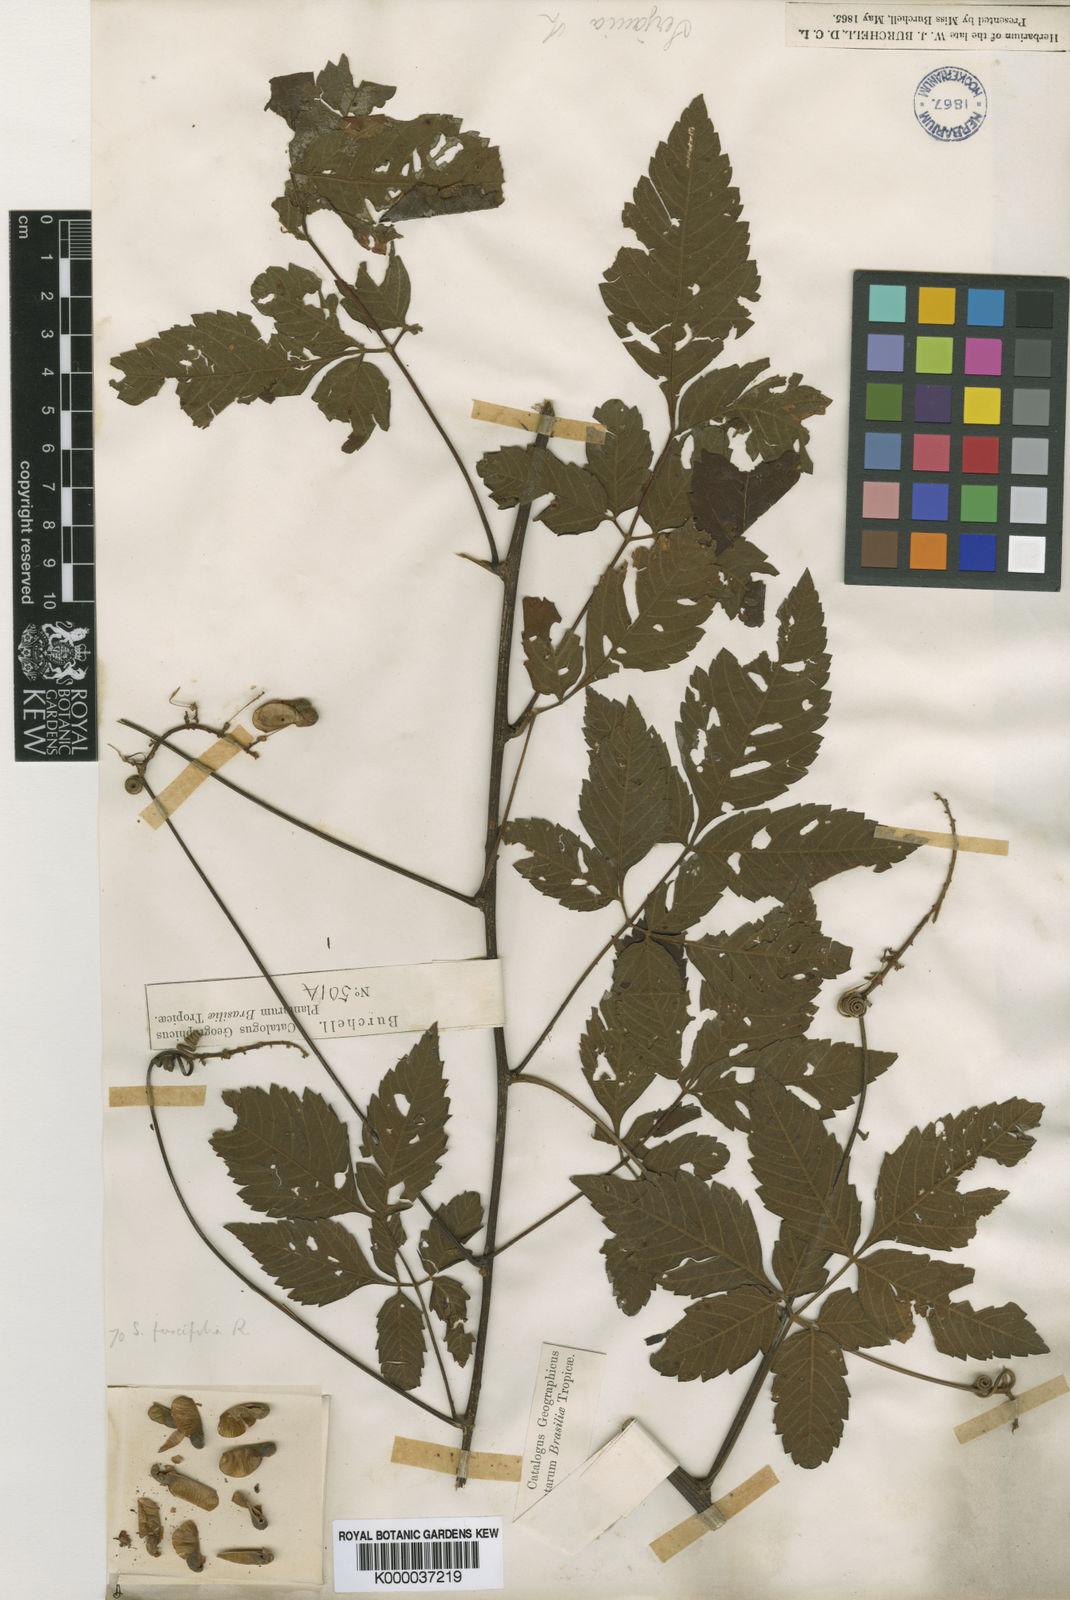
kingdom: Plantae
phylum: Tracheophyta
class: Magnoliopsida
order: Sapindales
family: Sapindaceae
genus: Serjania
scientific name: Serjania fuscifolia
